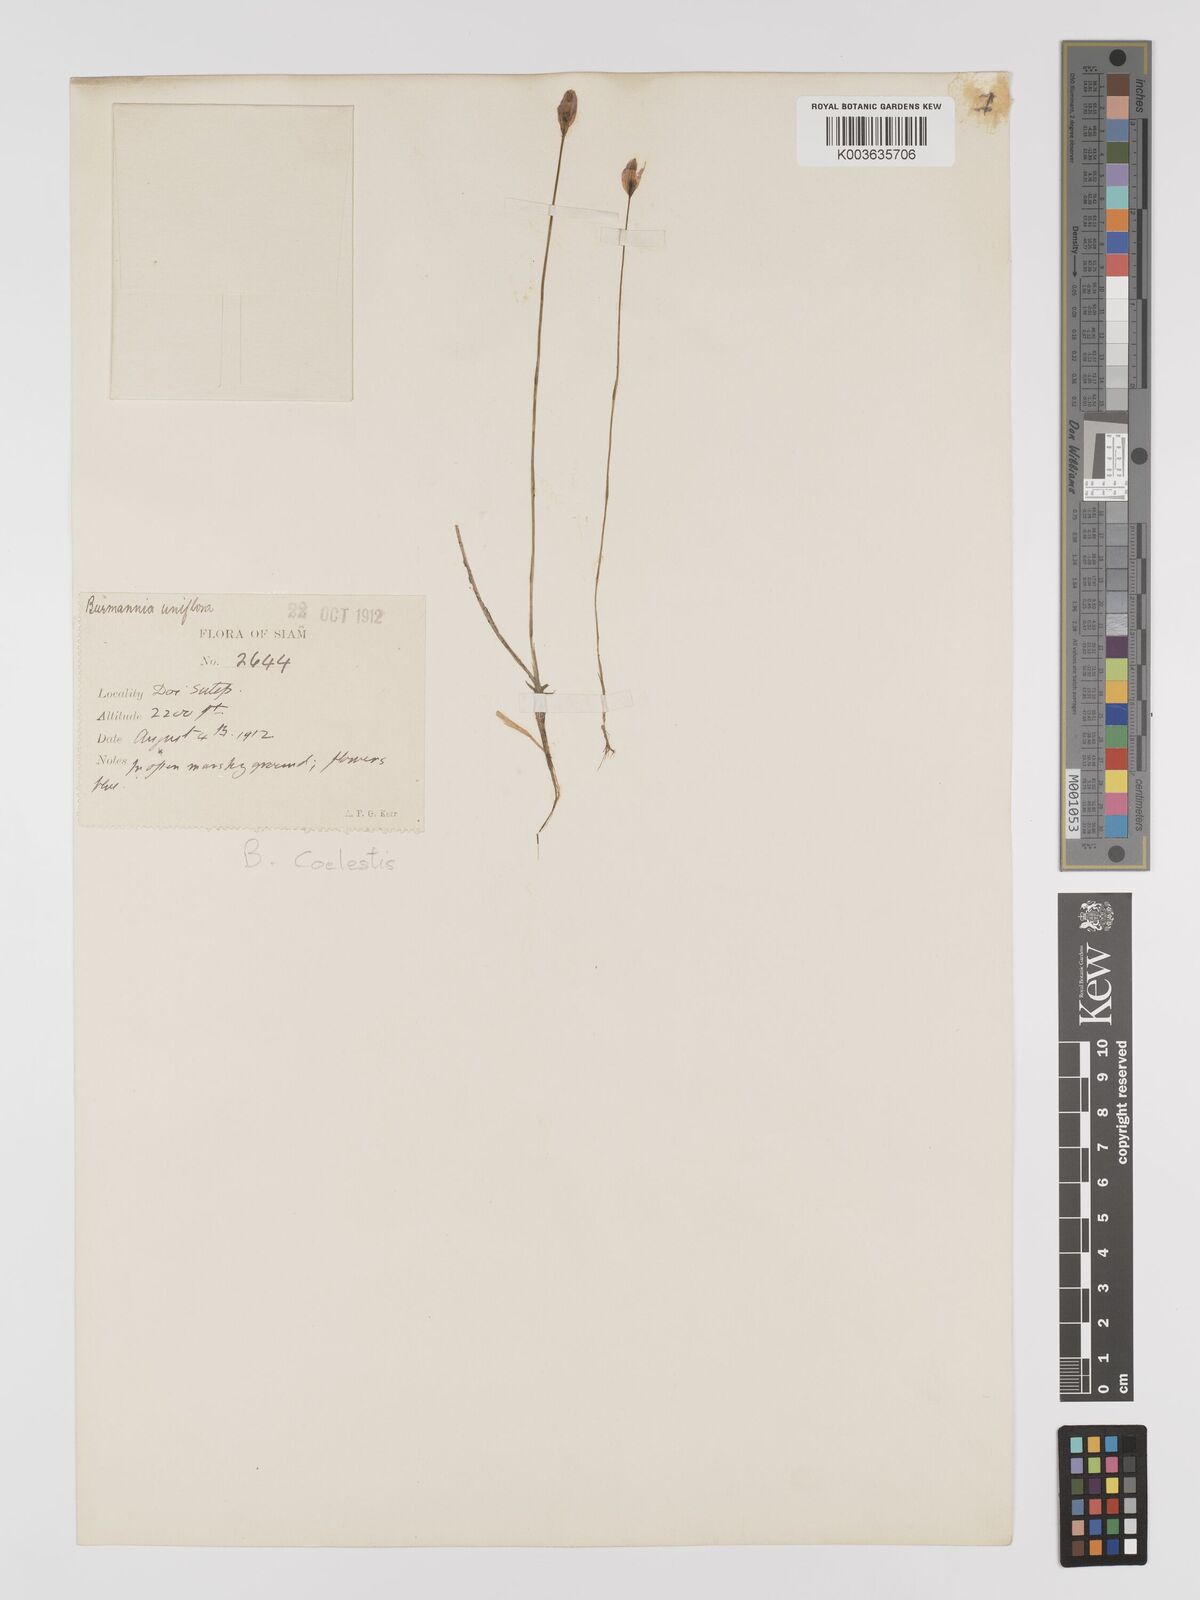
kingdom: Plantae
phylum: Tracheophyta
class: Liliopsida
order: Dioscoreales
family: Burmanniaceae
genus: Burmannia
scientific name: Burmannia coelestis
